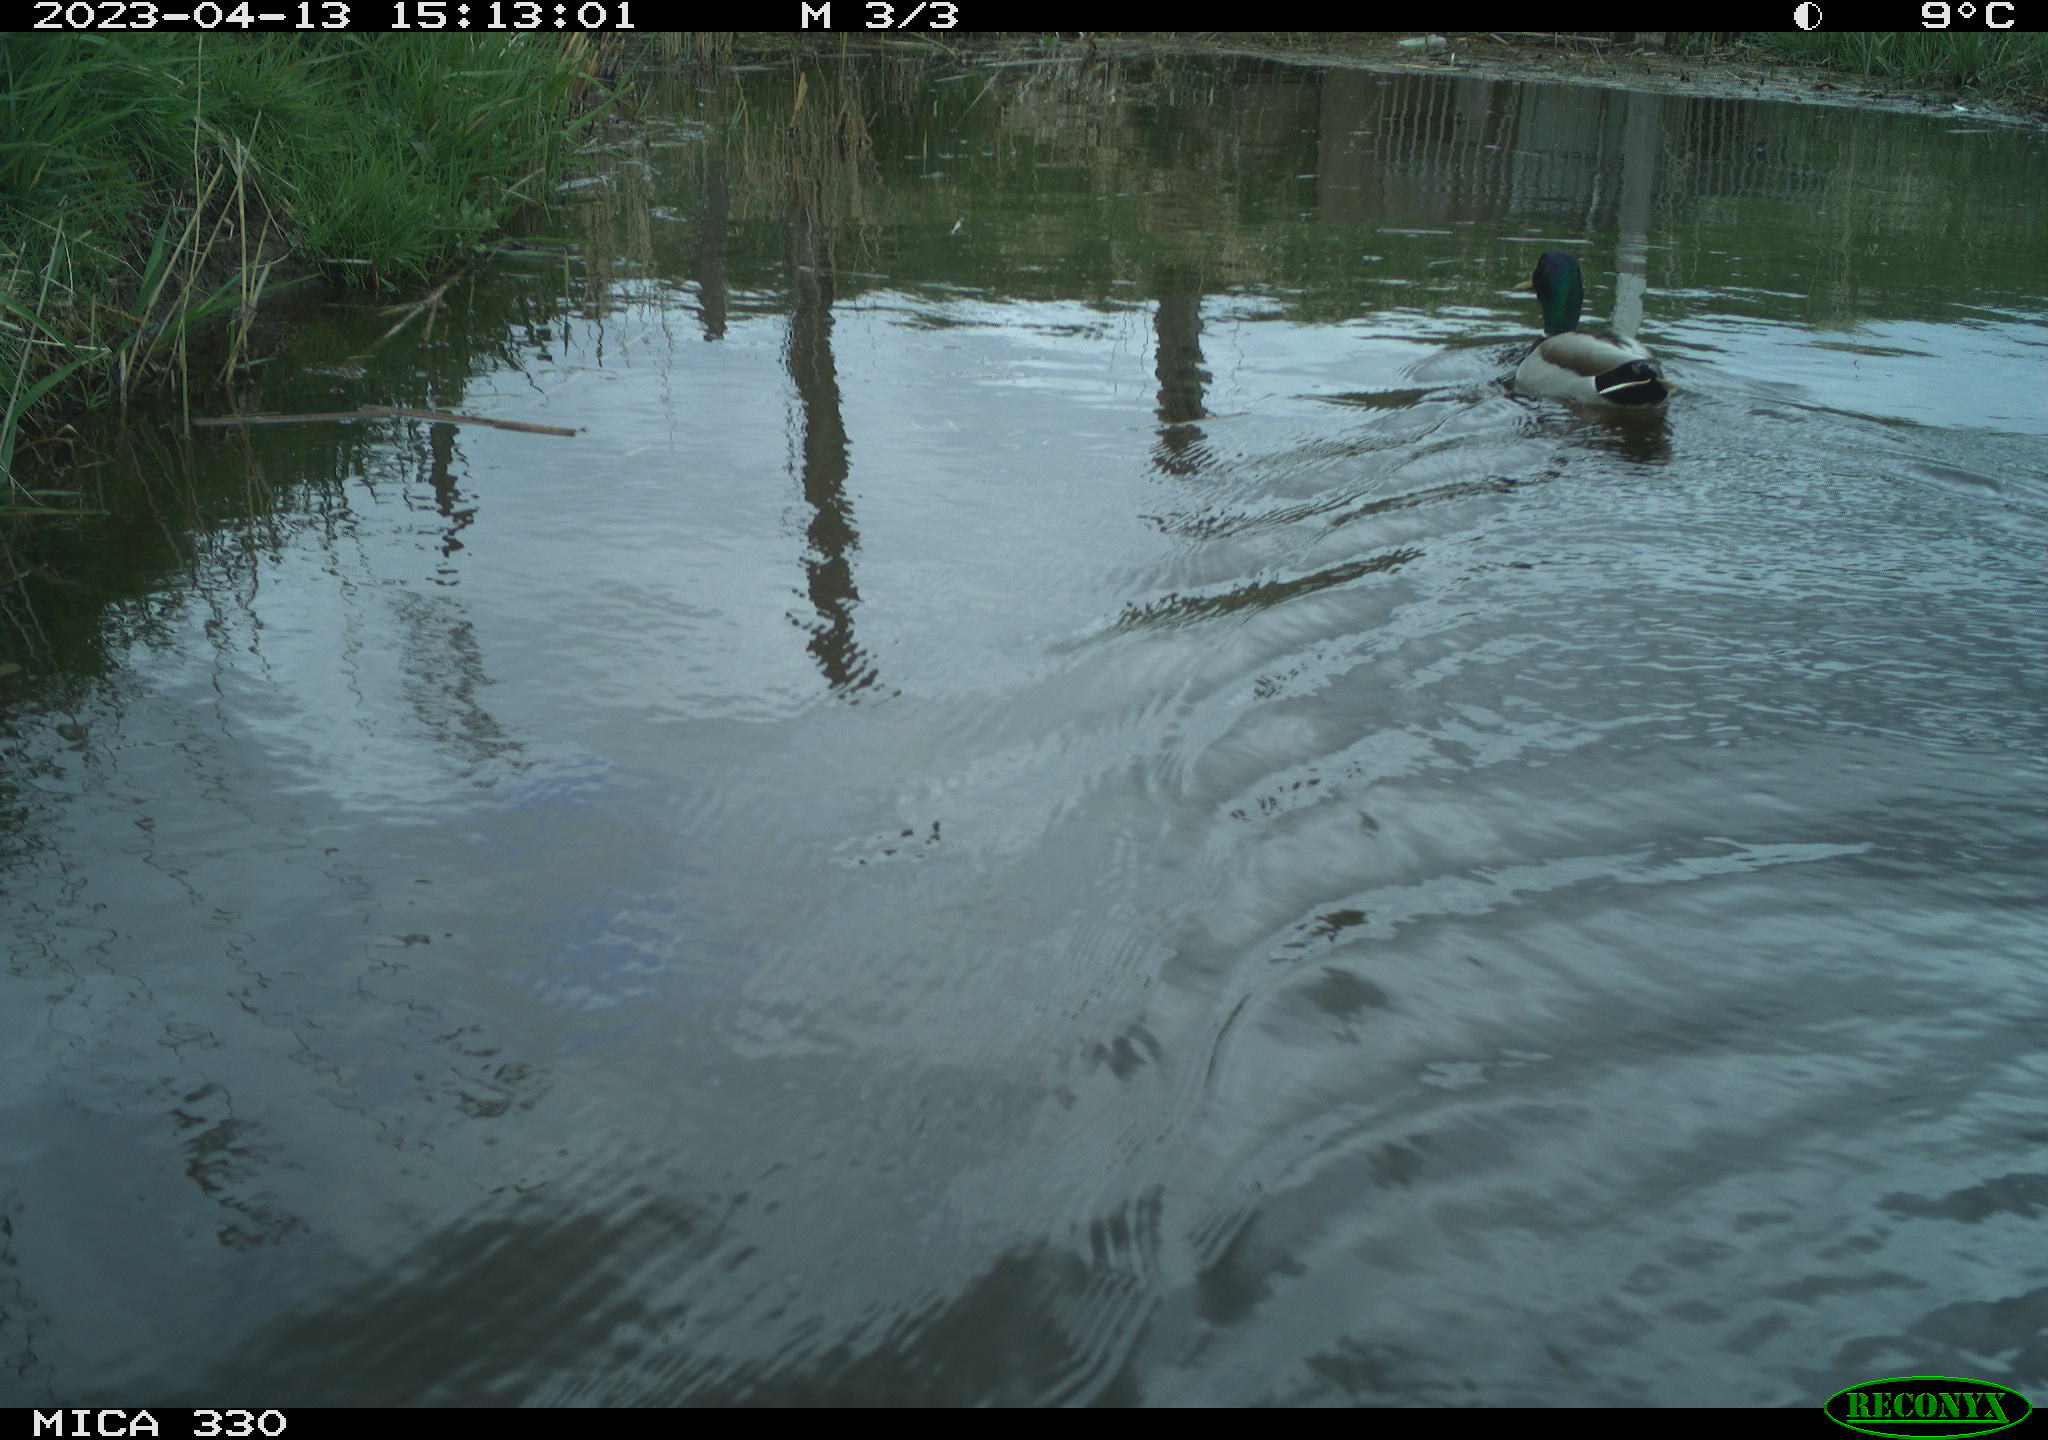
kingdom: Animalia
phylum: Chordata
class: Aves
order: Anseriformes
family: Anatidae
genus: Anas
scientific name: Anas
